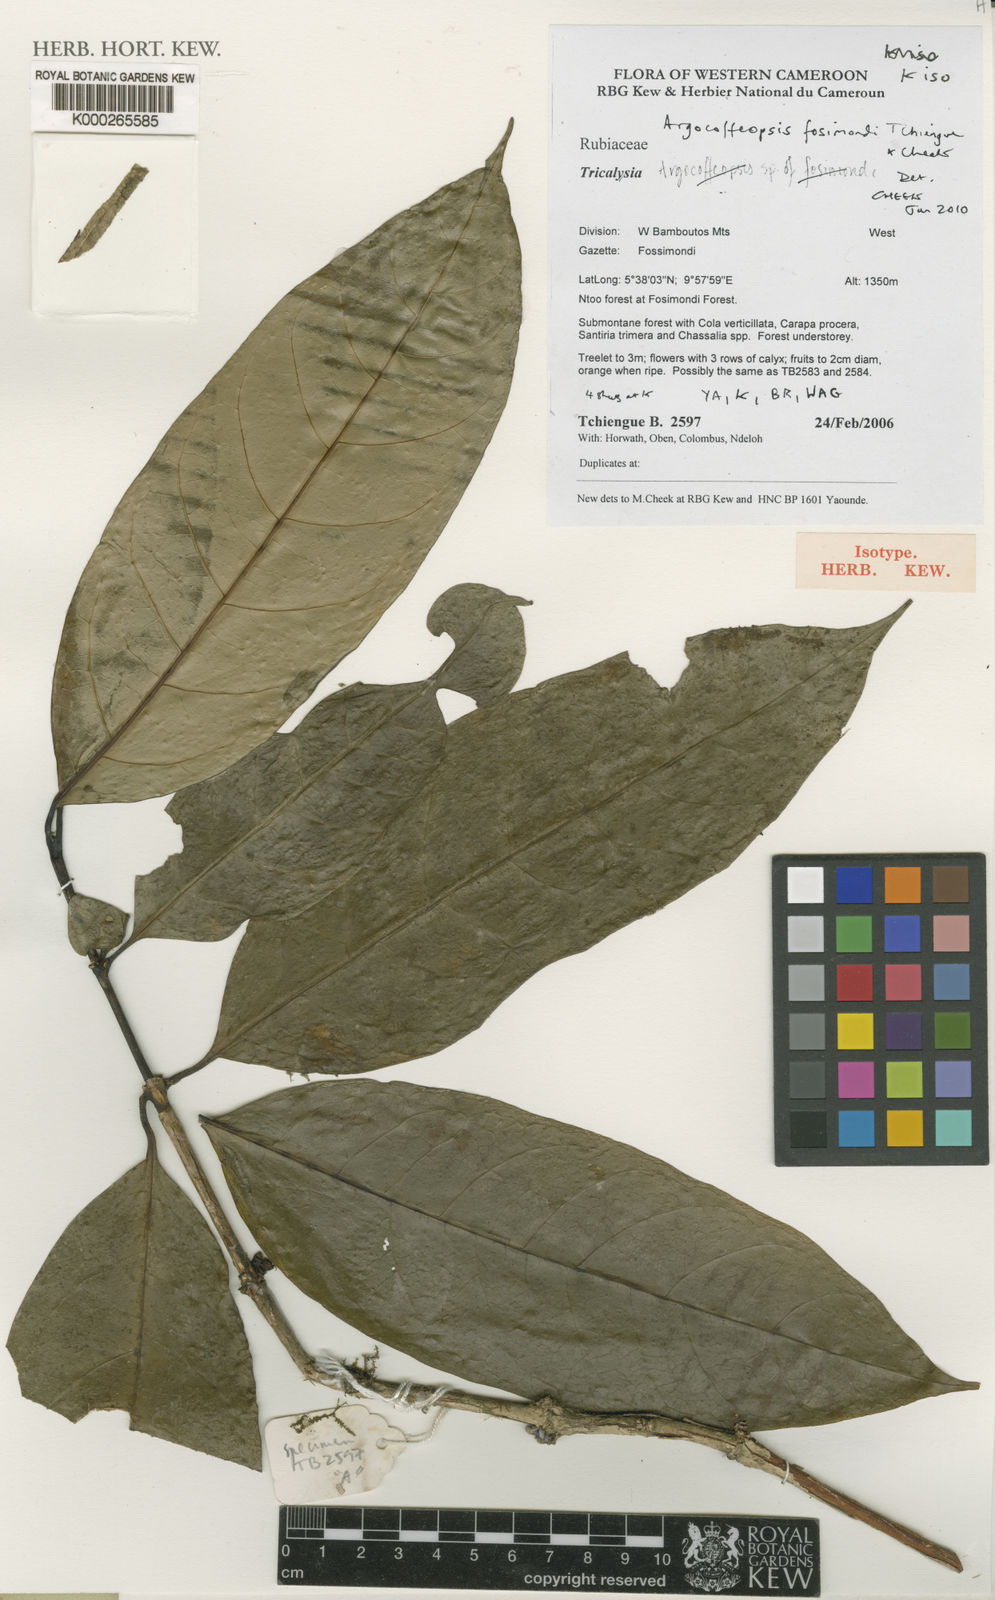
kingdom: Plantae
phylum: Tracheophyta
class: Magnoliopsida
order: Gentianales
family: Rubiaceae
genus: Kupeantha
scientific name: Kupeantha
